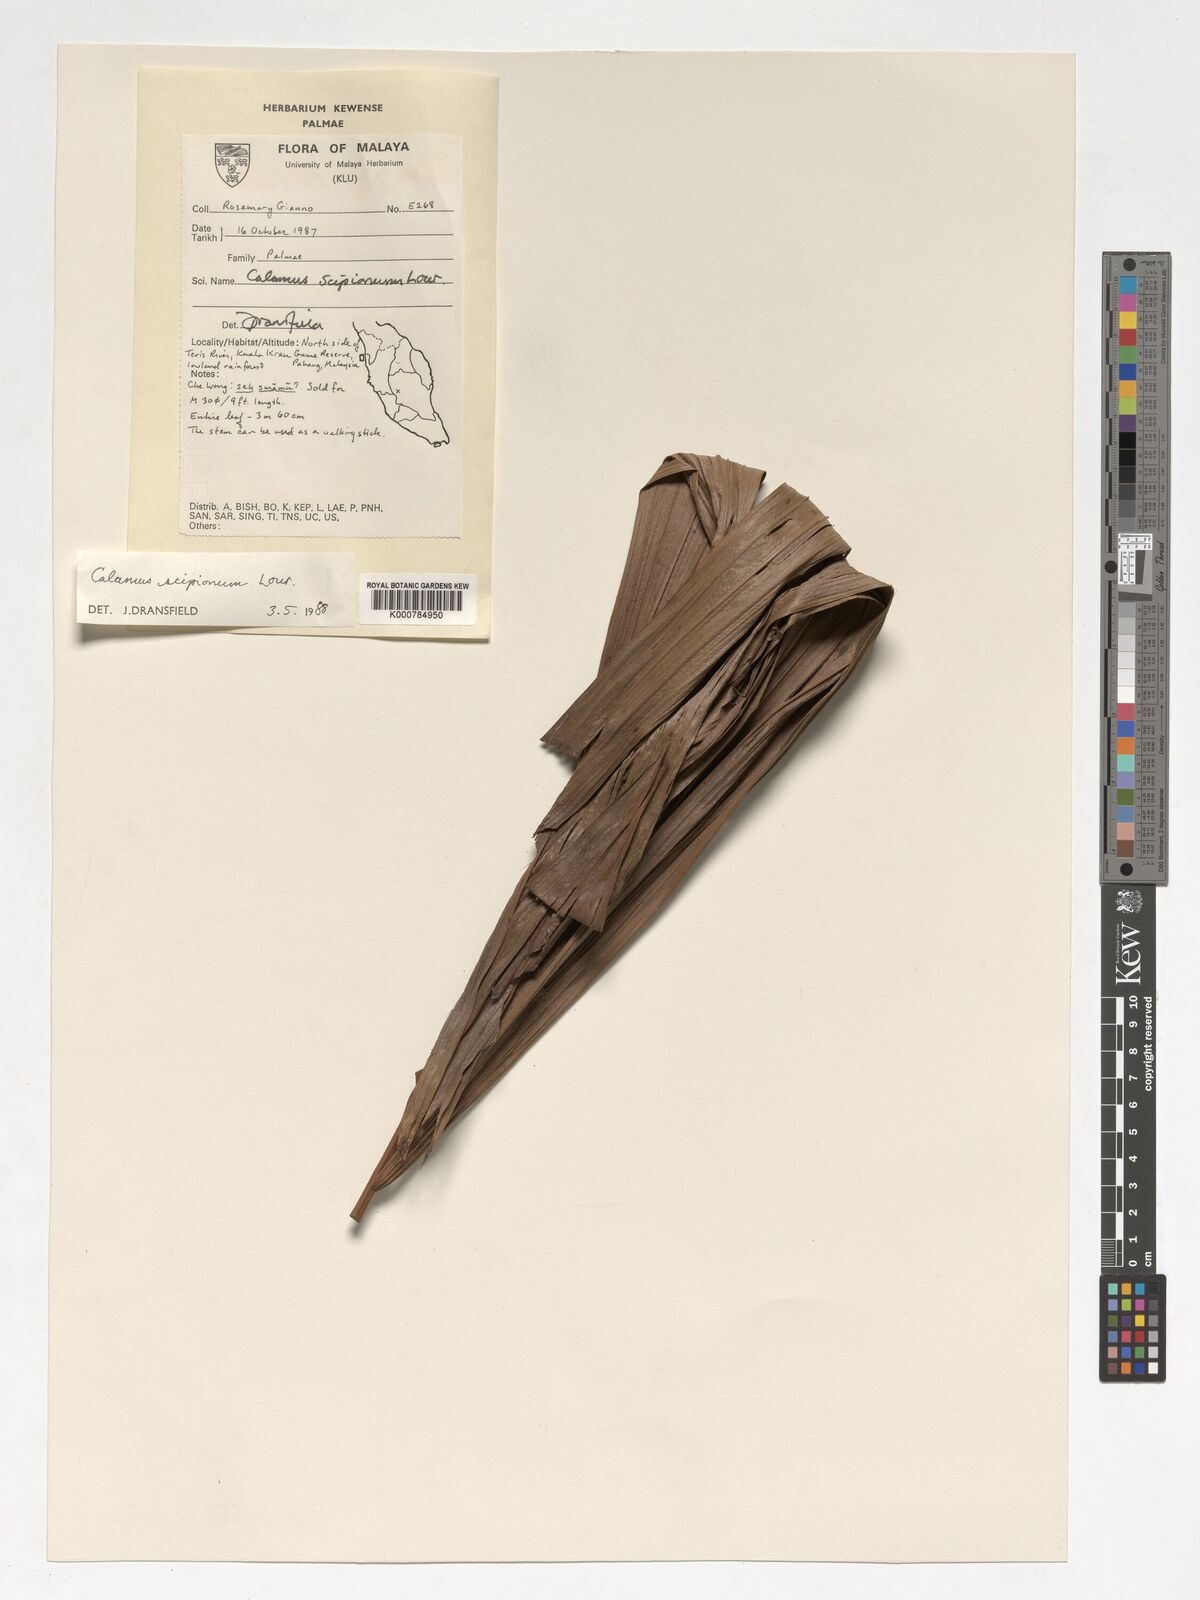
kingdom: Plantae
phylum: Tracheophyta
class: Liliopsida
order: Arecales
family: Arecaceae
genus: Calamus
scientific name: Calamus scipionum
